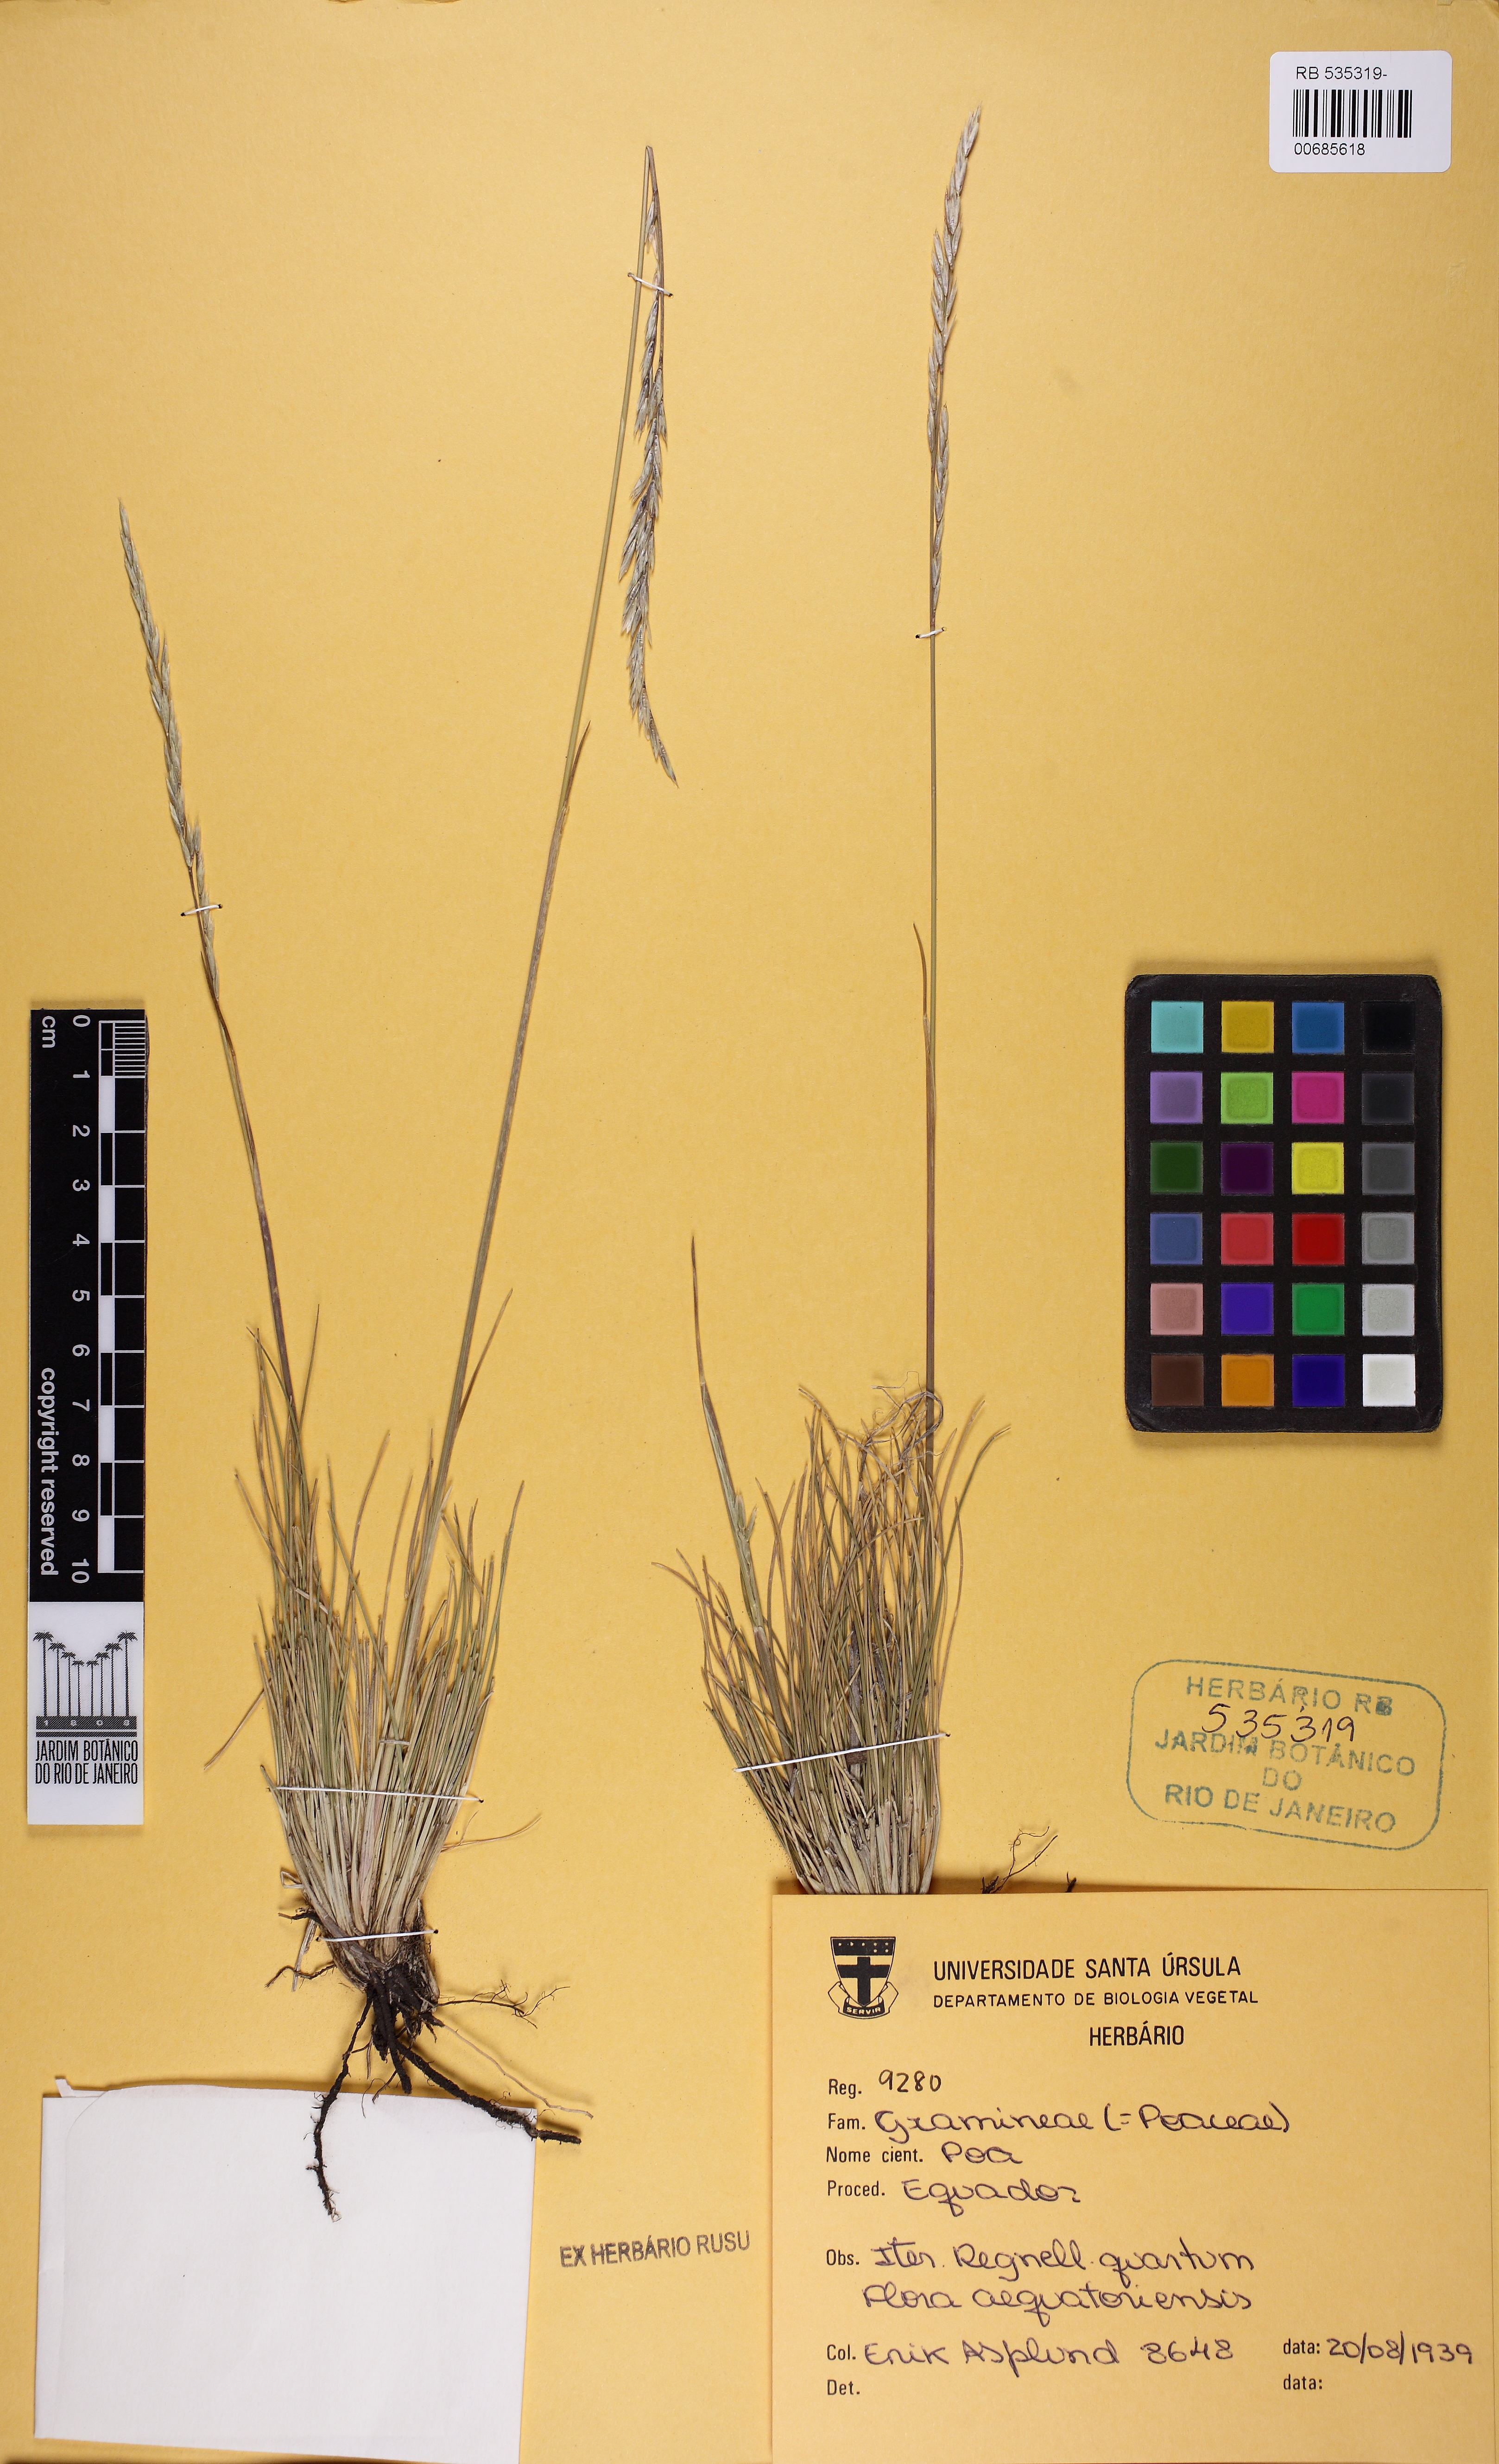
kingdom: Plantae
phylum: Tracheophyta
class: Liliopsida
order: Poales
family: Poaceae
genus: Poa
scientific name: Poa
